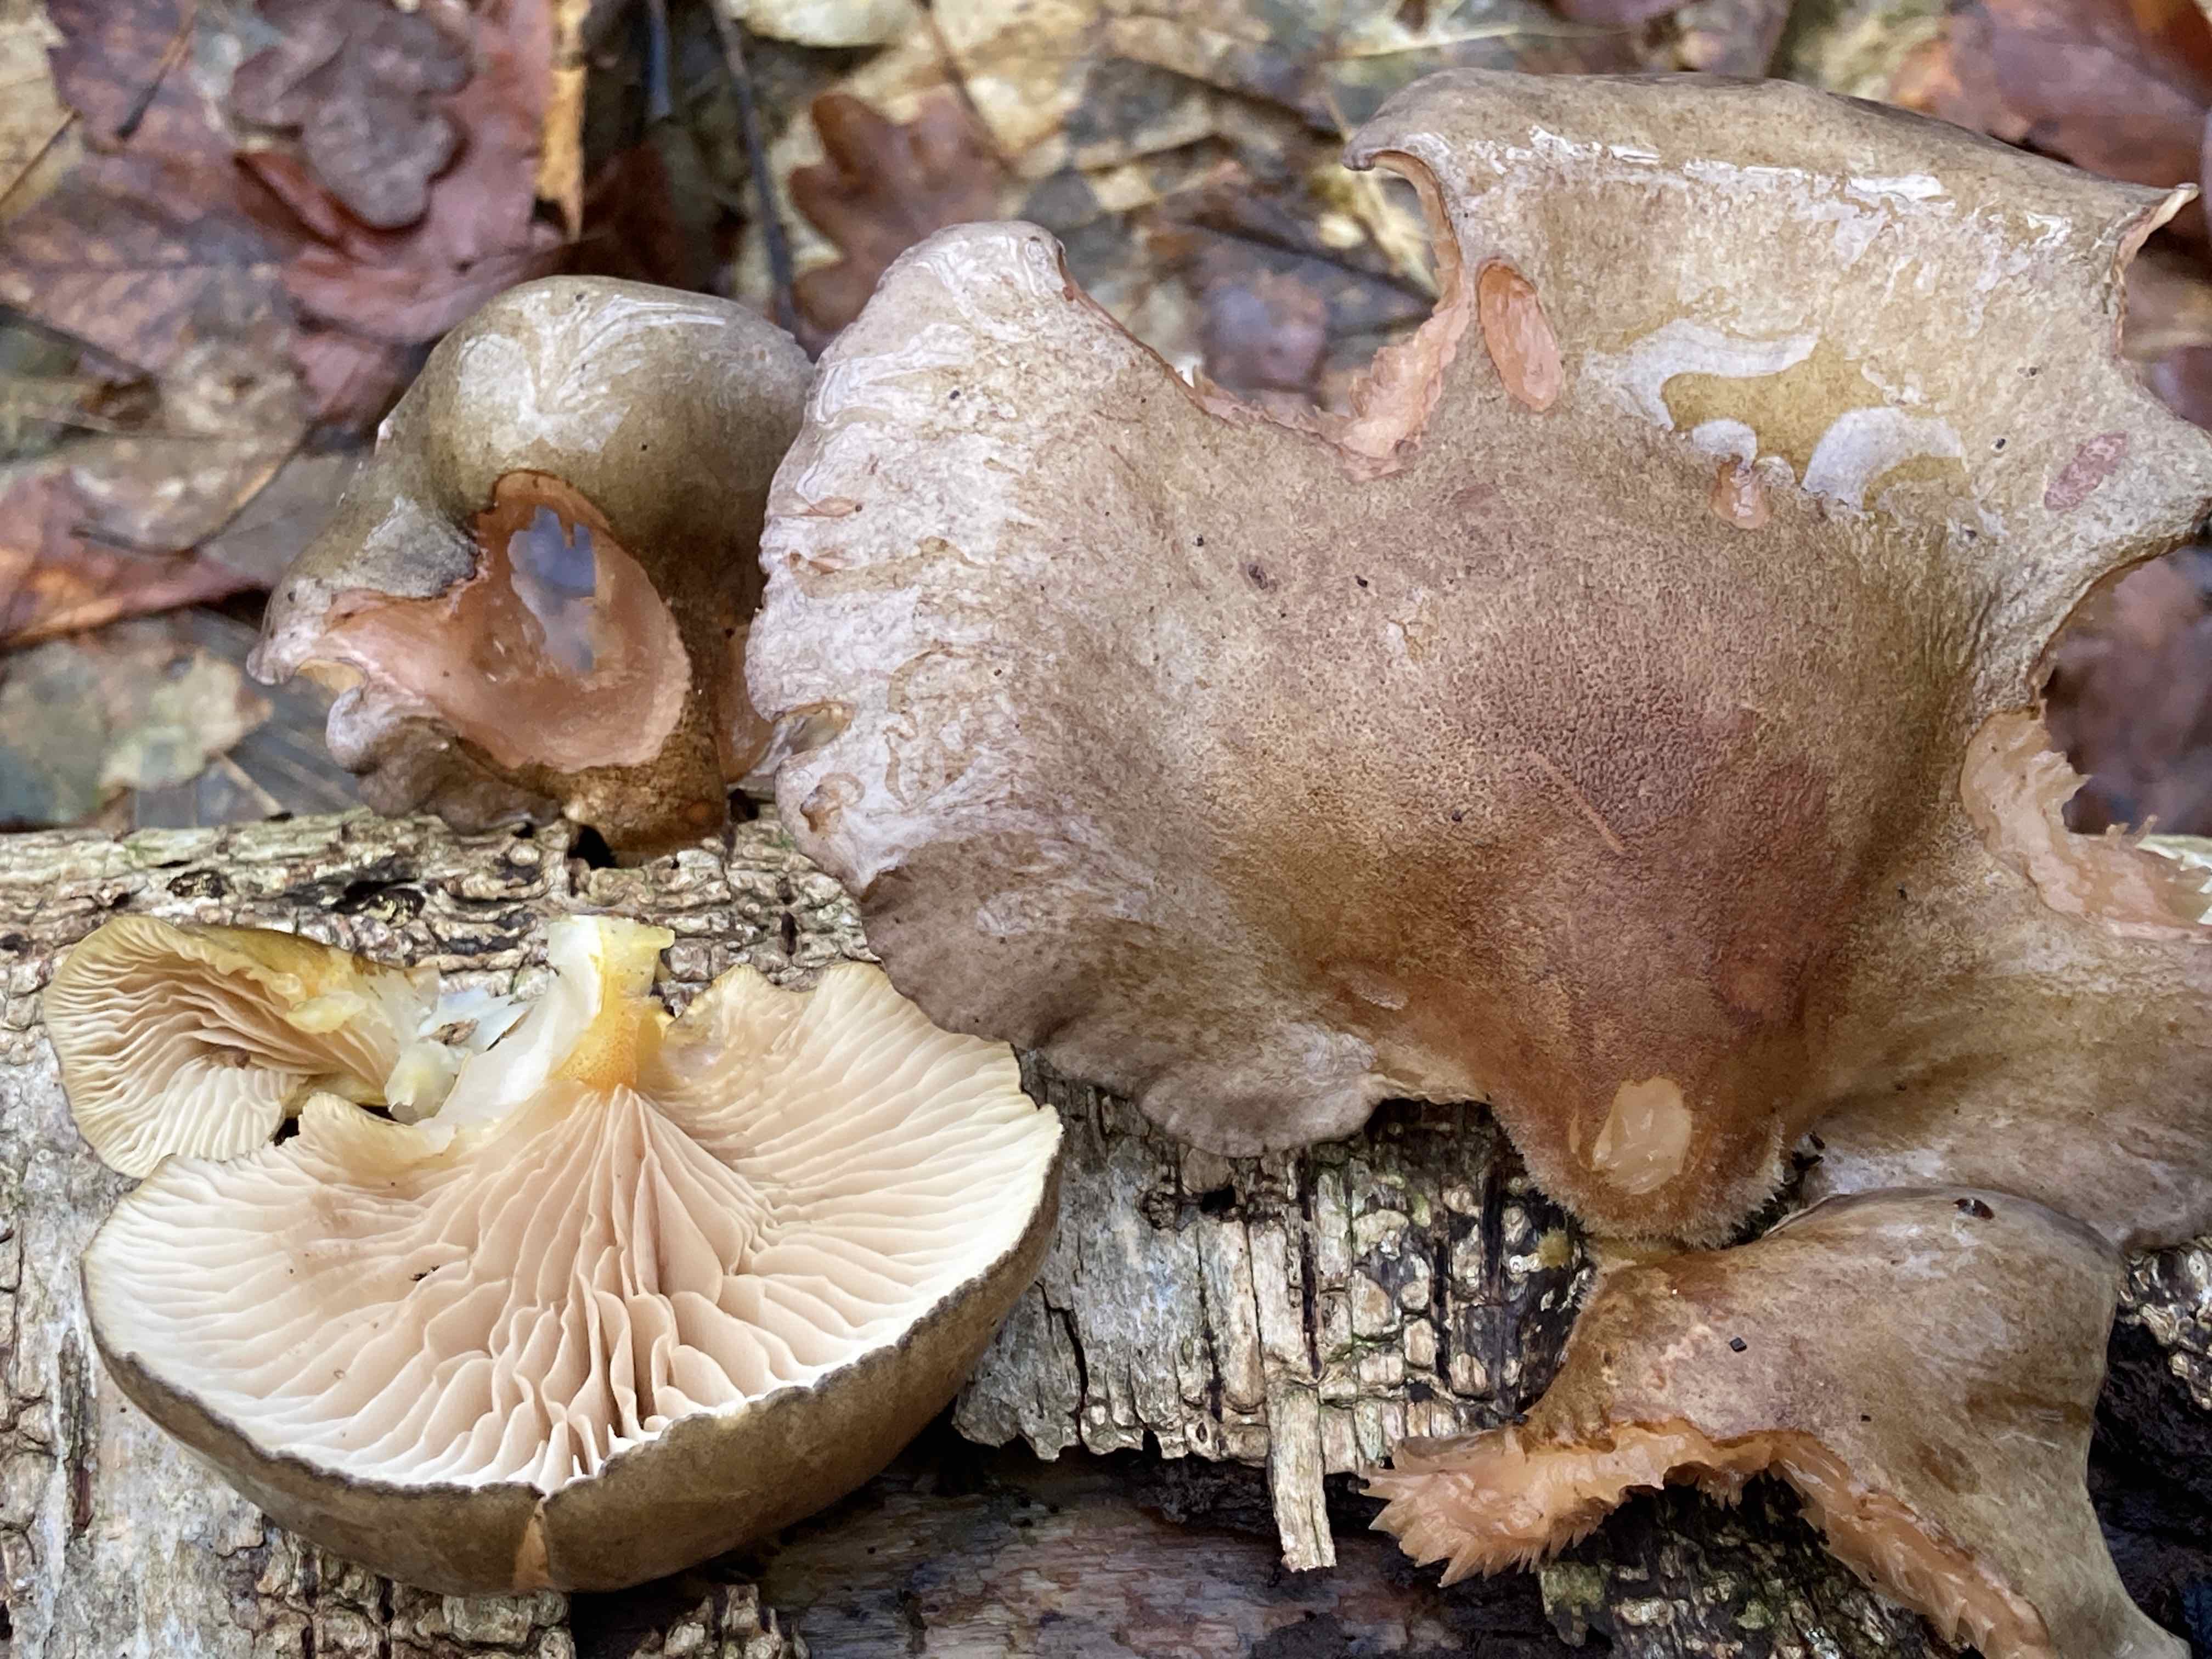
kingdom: Fungi
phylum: Basidiomycota
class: Agaricomycetes
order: Agaricales
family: Sarcomyxaceae
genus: Sarcomyxa
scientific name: Sarcomyxa serotina
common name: gummihat
